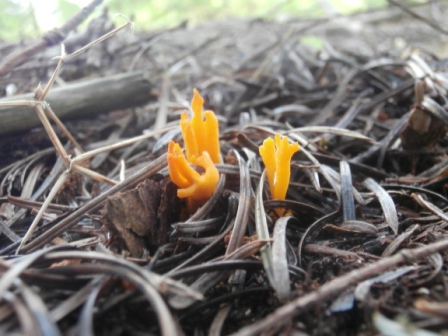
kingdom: Fungi
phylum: Basidiomycota
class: Dacrymycetes
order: Dacrymycetales
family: Dacrymycetaceae
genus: Calocera
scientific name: Calocera viscosa
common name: almindelig guldgaffel
